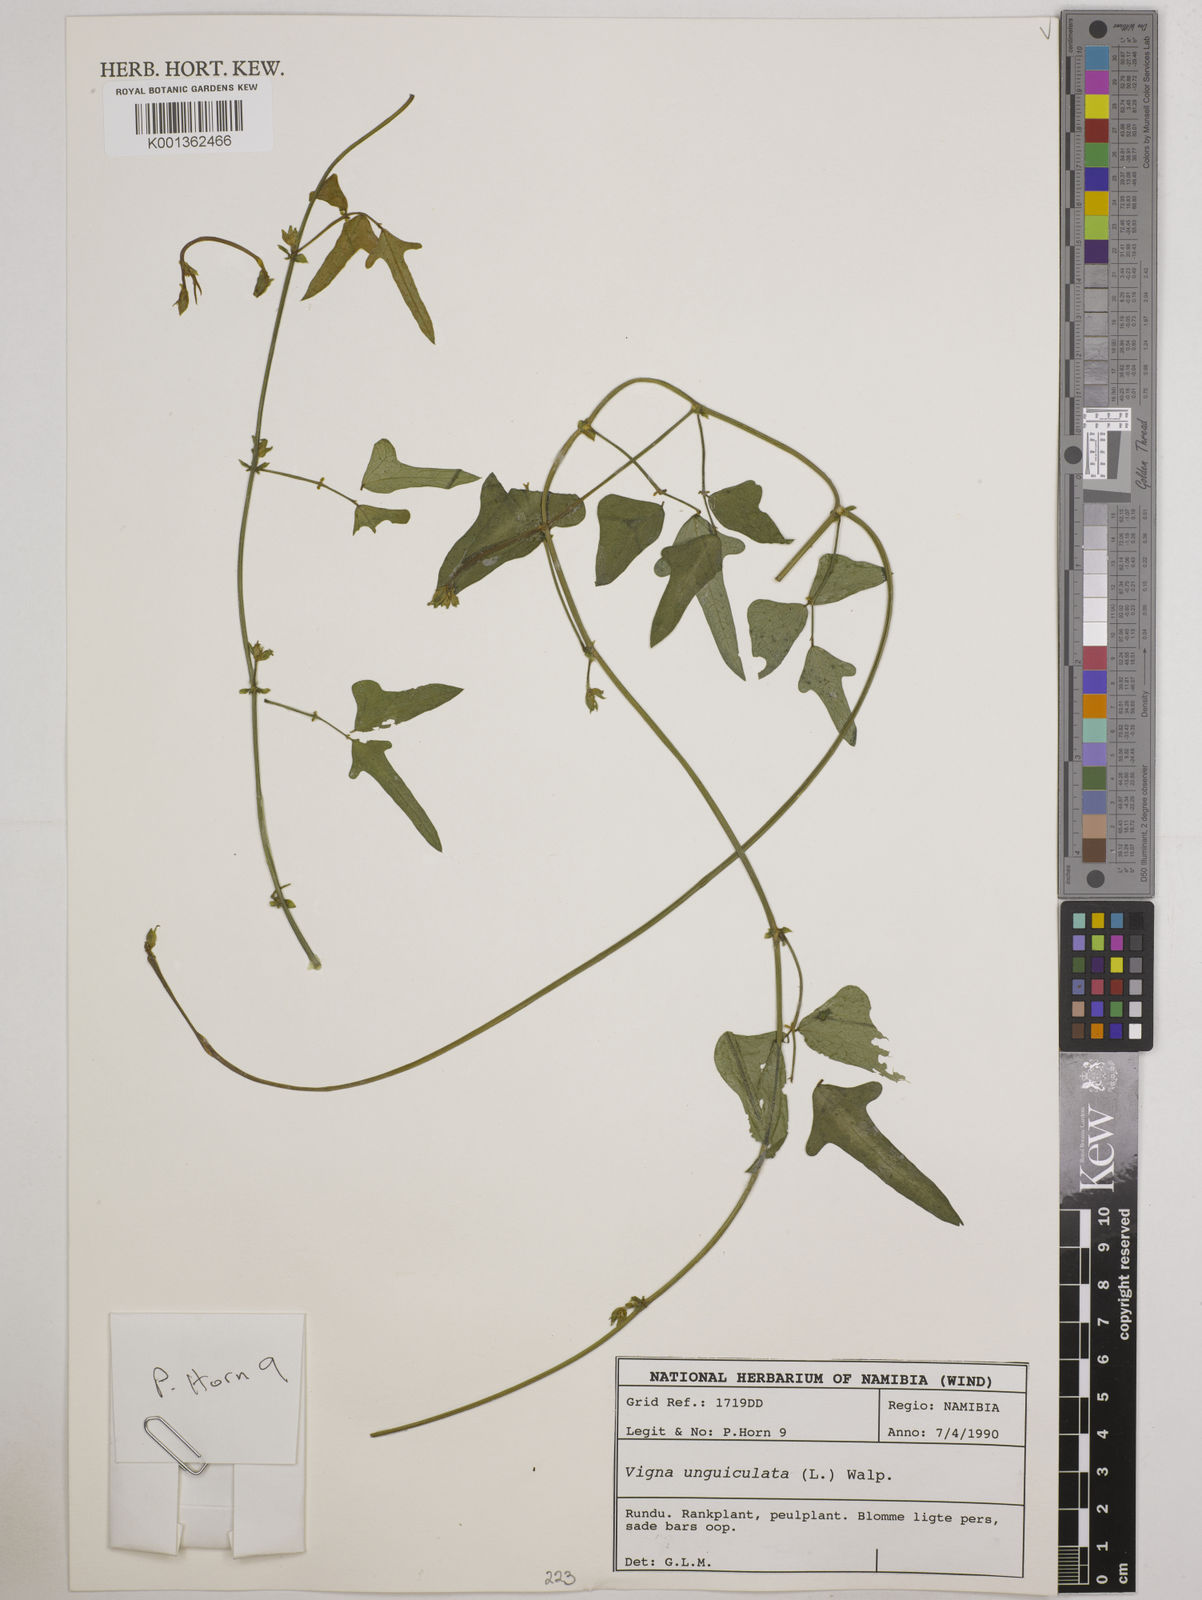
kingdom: Plantae
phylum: Tracheophyta
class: Magnoliopsida
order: Fabales
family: Fabaceae
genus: Vigna
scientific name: Vigna unguiculata
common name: Cowpea
